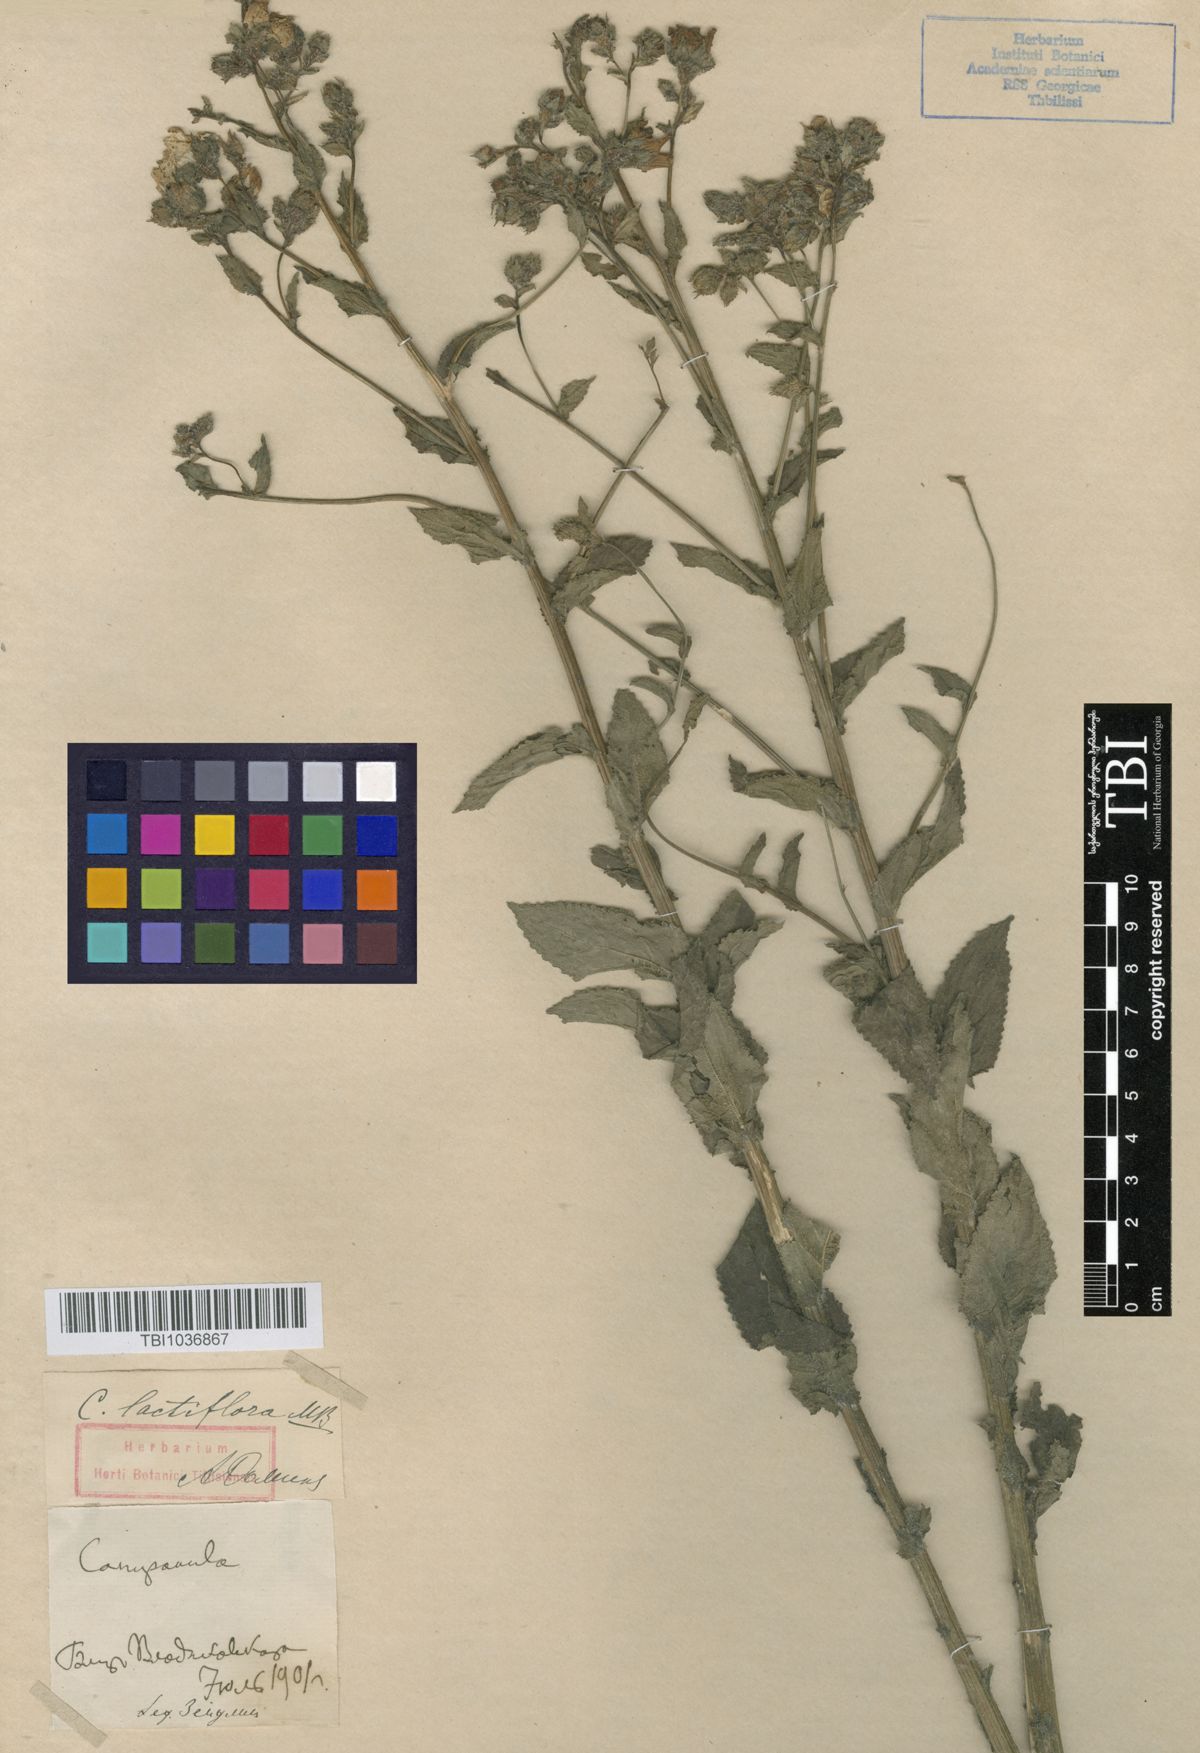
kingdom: Plantae
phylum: Tracheophyta
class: Magnoliopsida
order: Asterales
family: Campanulaceae
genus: Campanula
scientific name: Campanula lactiflora
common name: Milky bellflower
